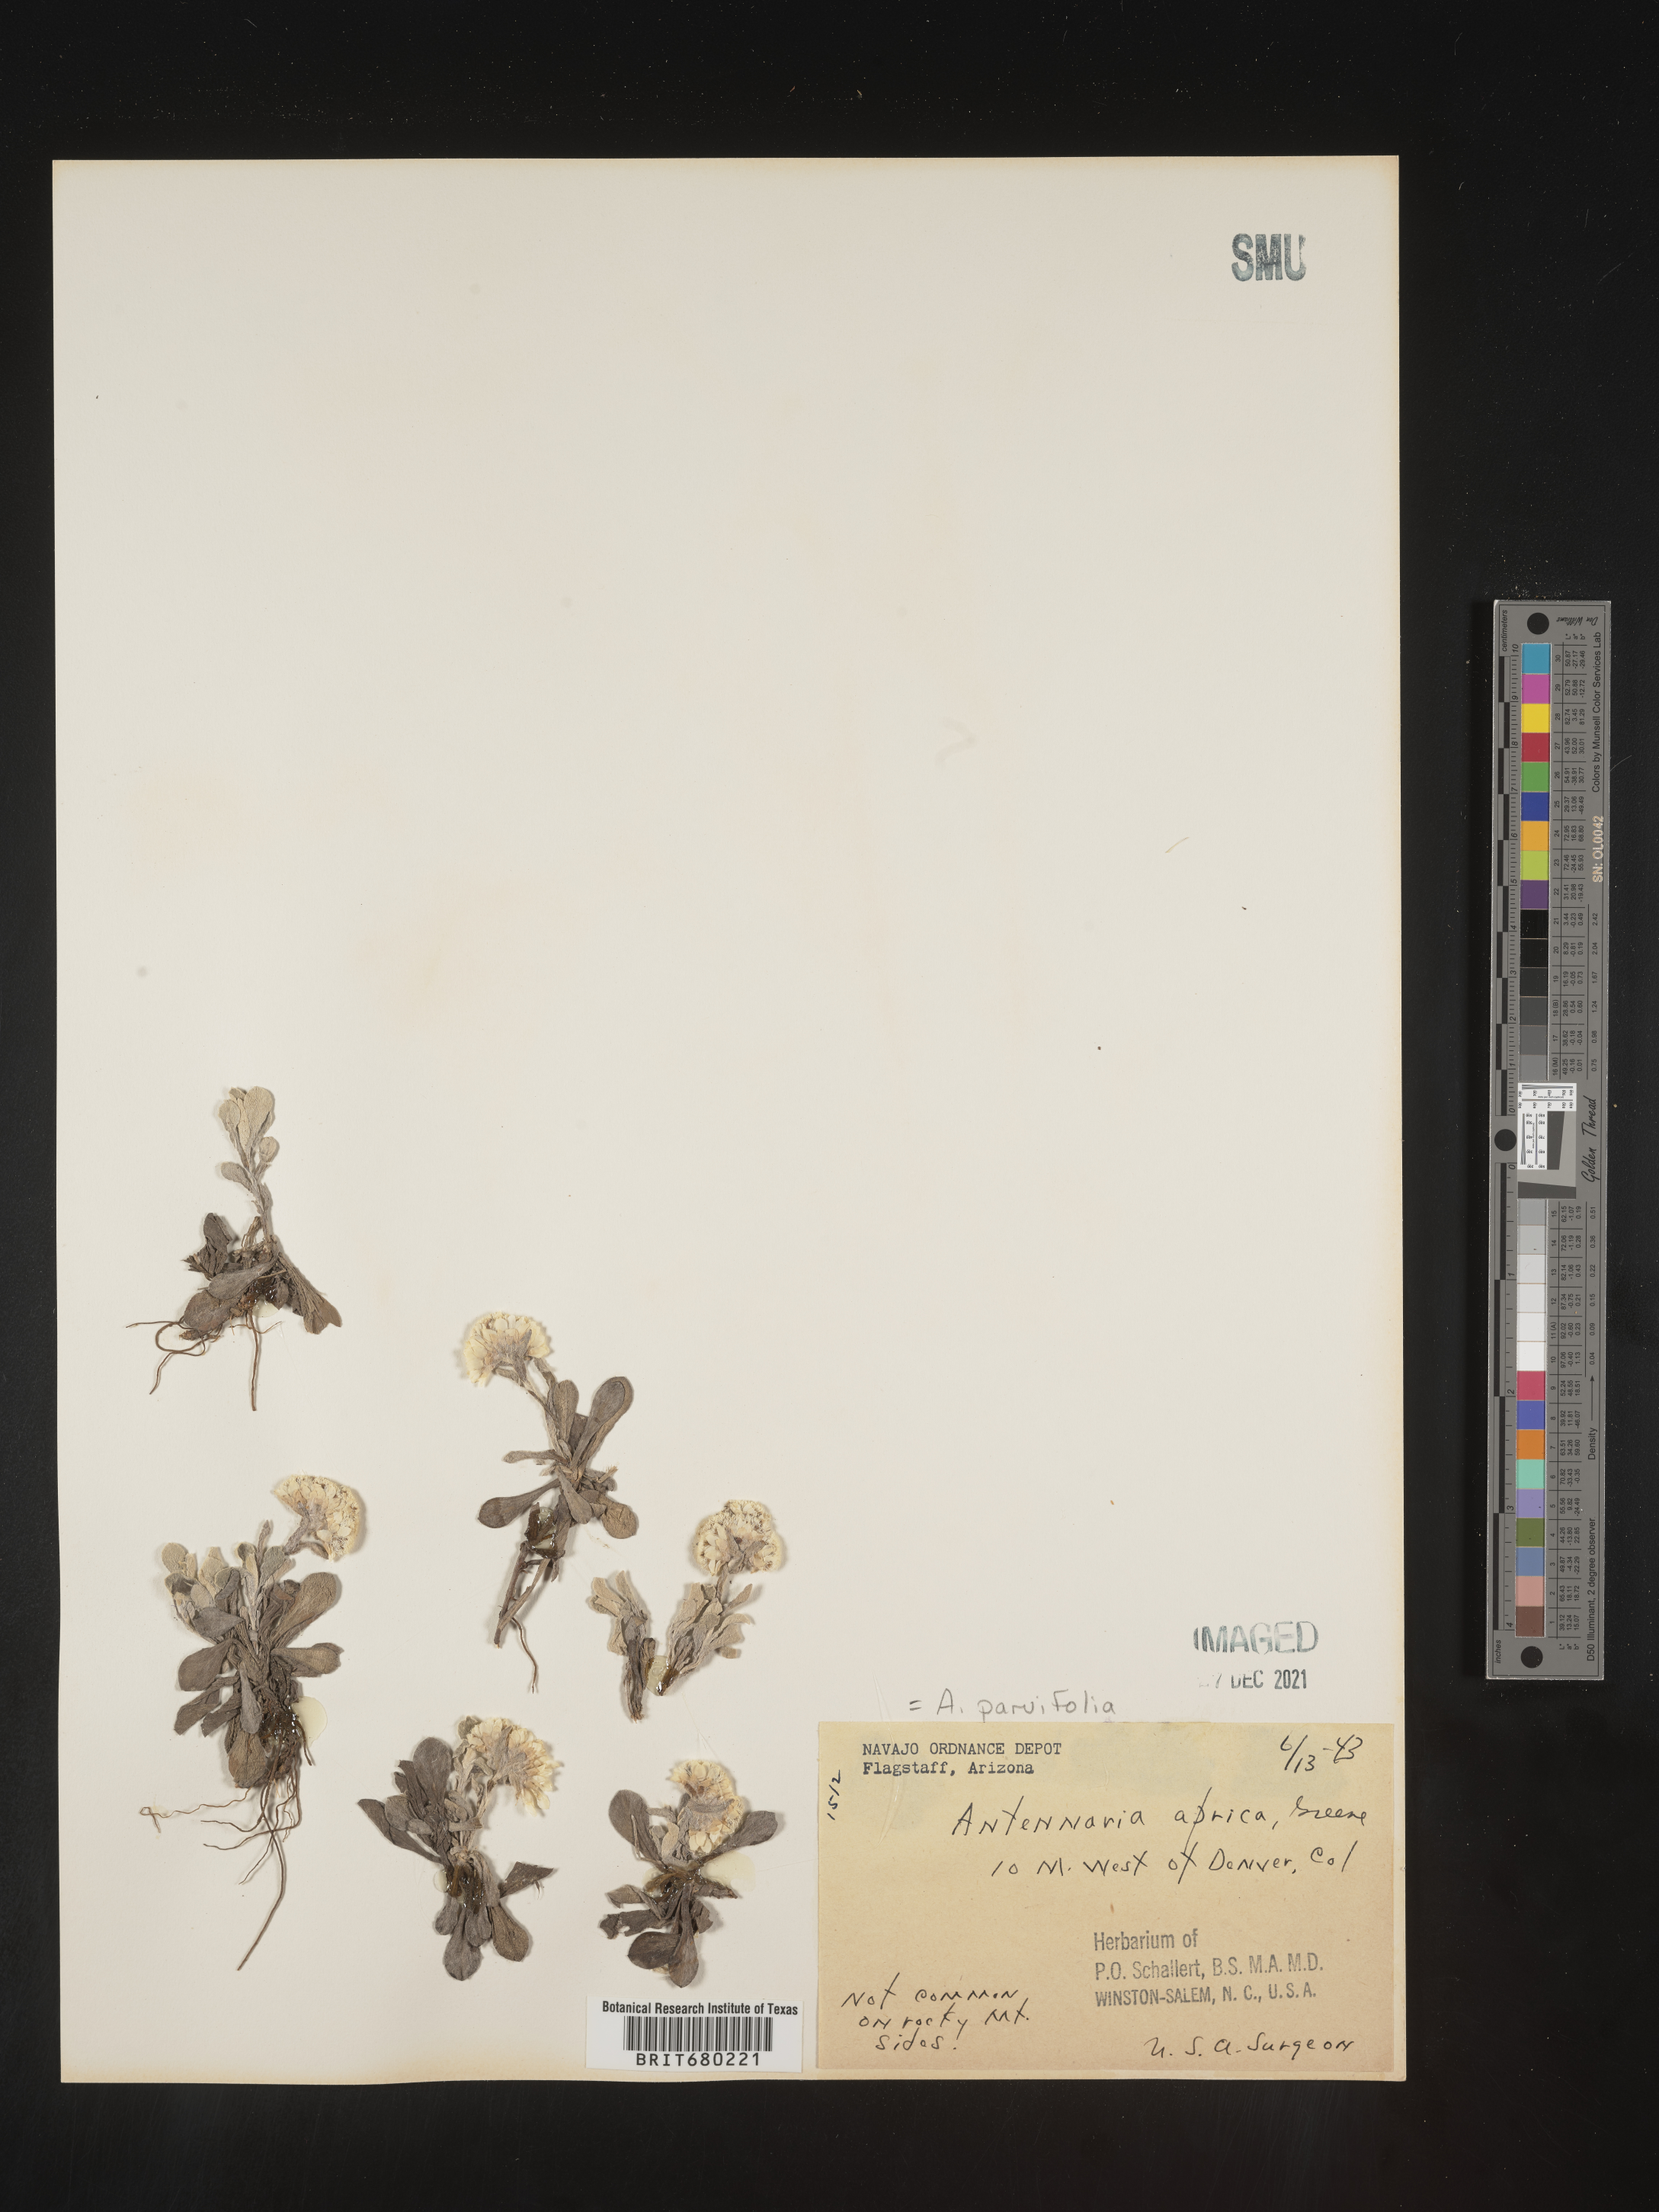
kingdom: Plantae
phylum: Tracheophyta
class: Magnoliopsida
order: Asterales
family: Asteraceae
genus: Antennaria
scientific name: Antennaria plantaginifolia
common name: Plantain-leaved pussytoes
